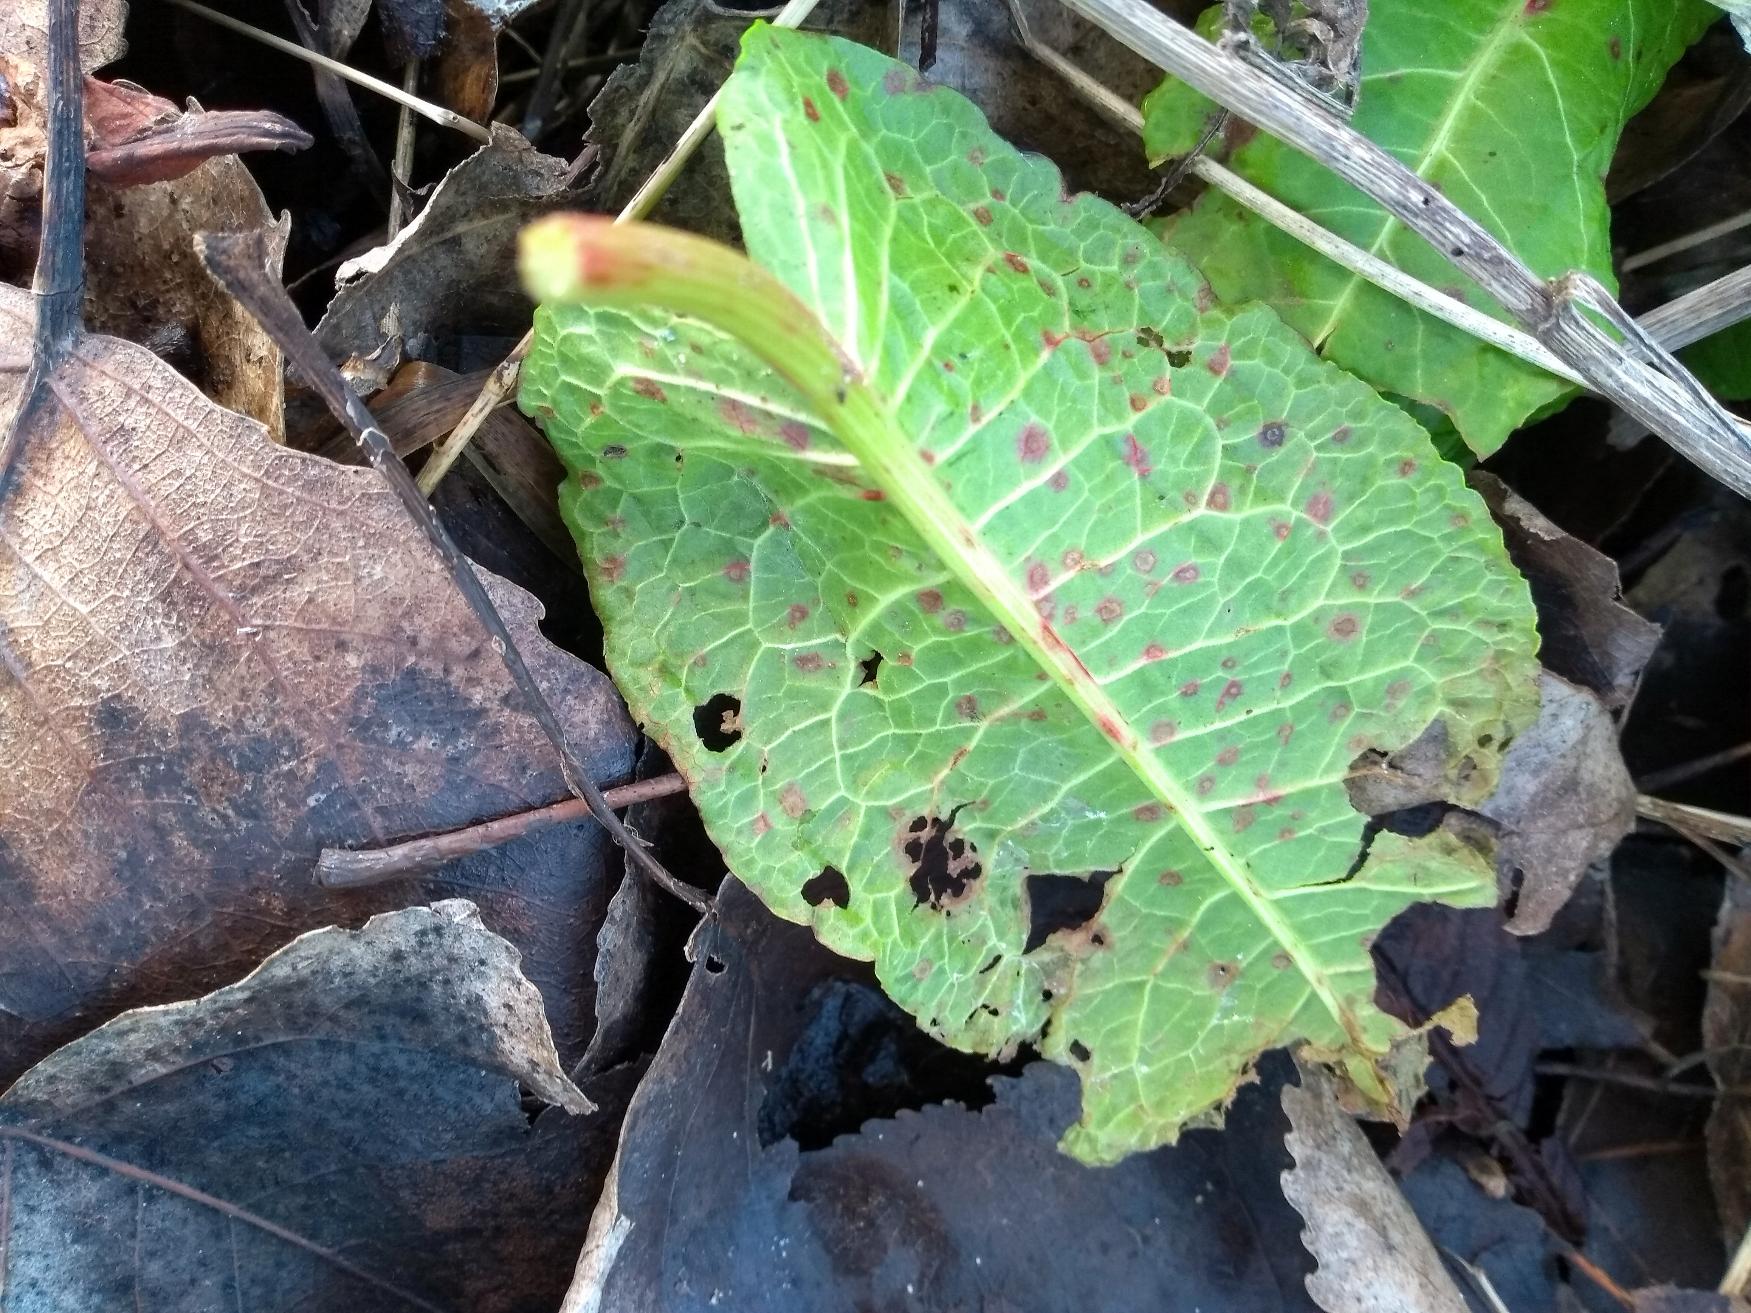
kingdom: Plantae
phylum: Tracheophyta
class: Magnoliopsida
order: Caryophyllales
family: Polygonaceae
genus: Rumex
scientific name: Rumex obtusifolius
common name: Butbladet skræppe
